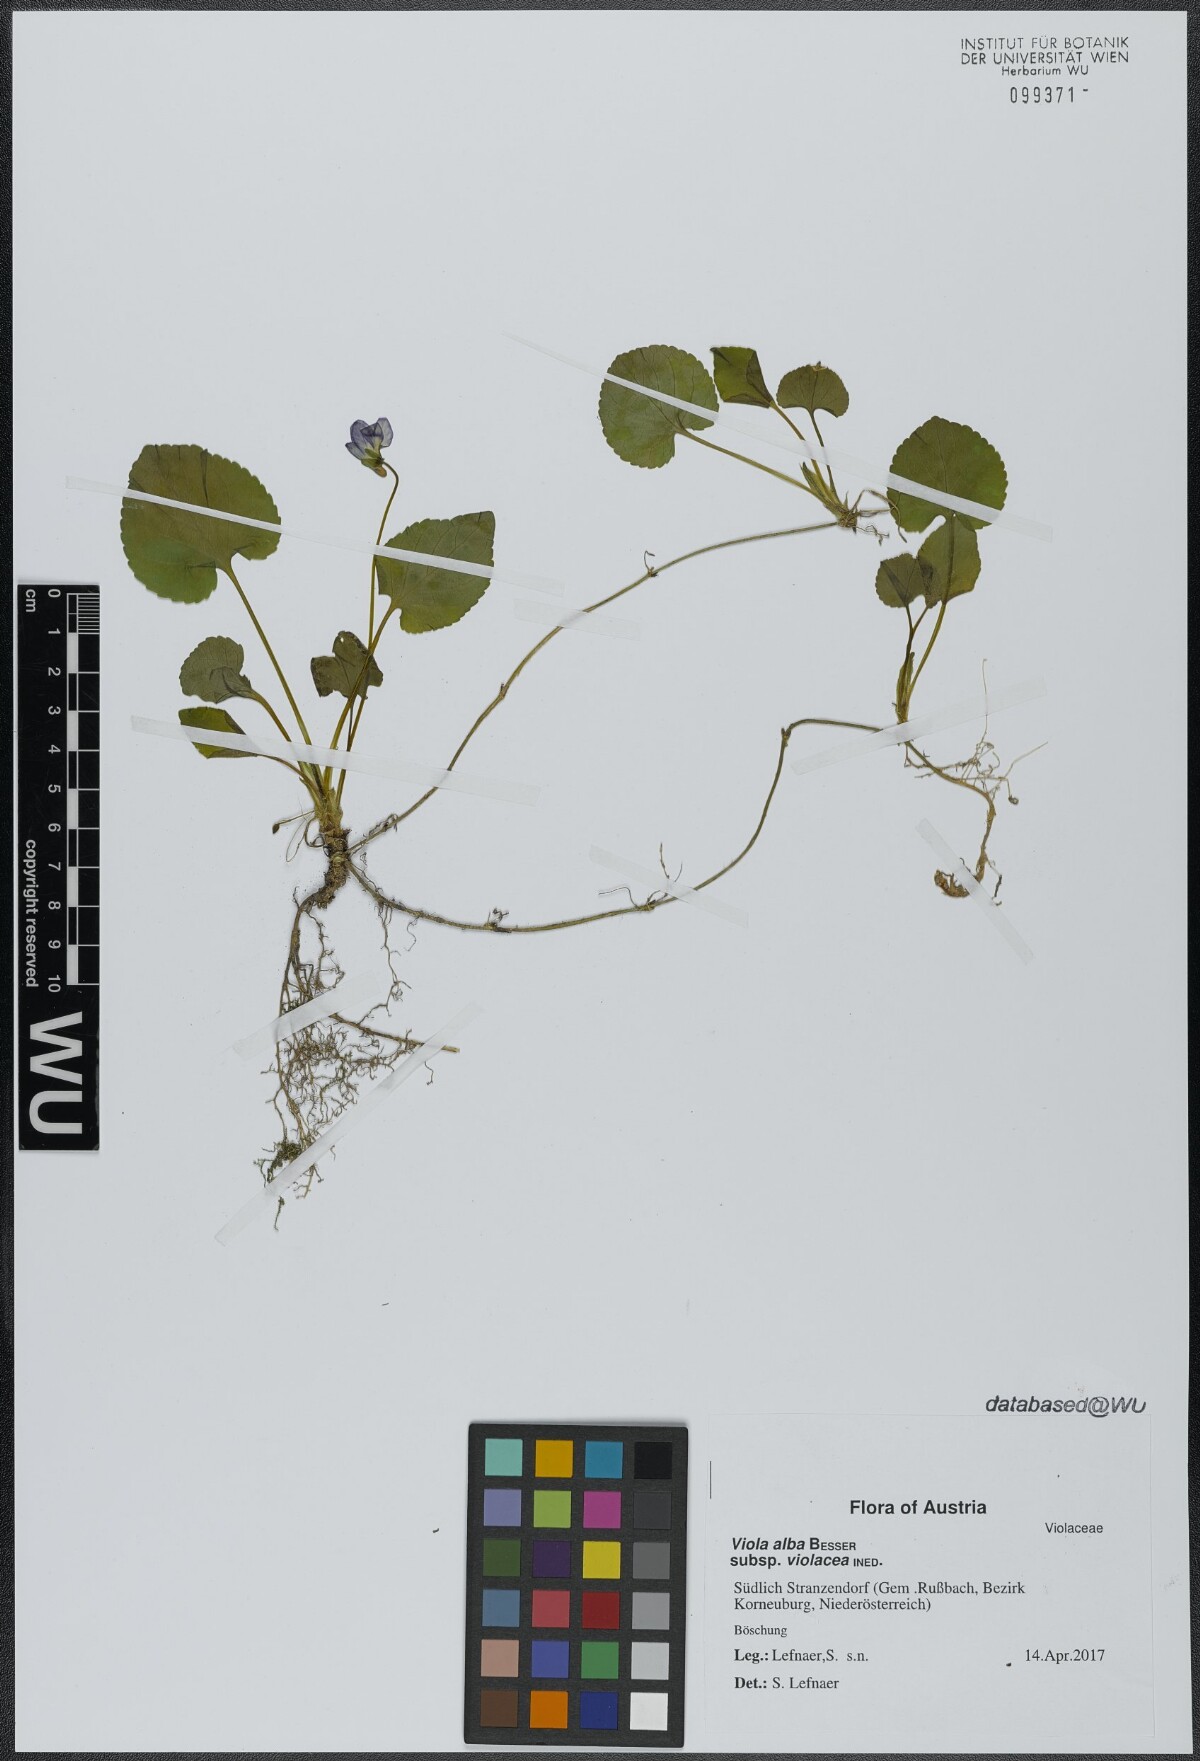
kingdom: Plantae
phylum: Tracheophyta
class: Magnoliopsida
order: Malpighiales
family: Violaceae
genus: Viola
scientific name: Viola alba
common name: White violet
